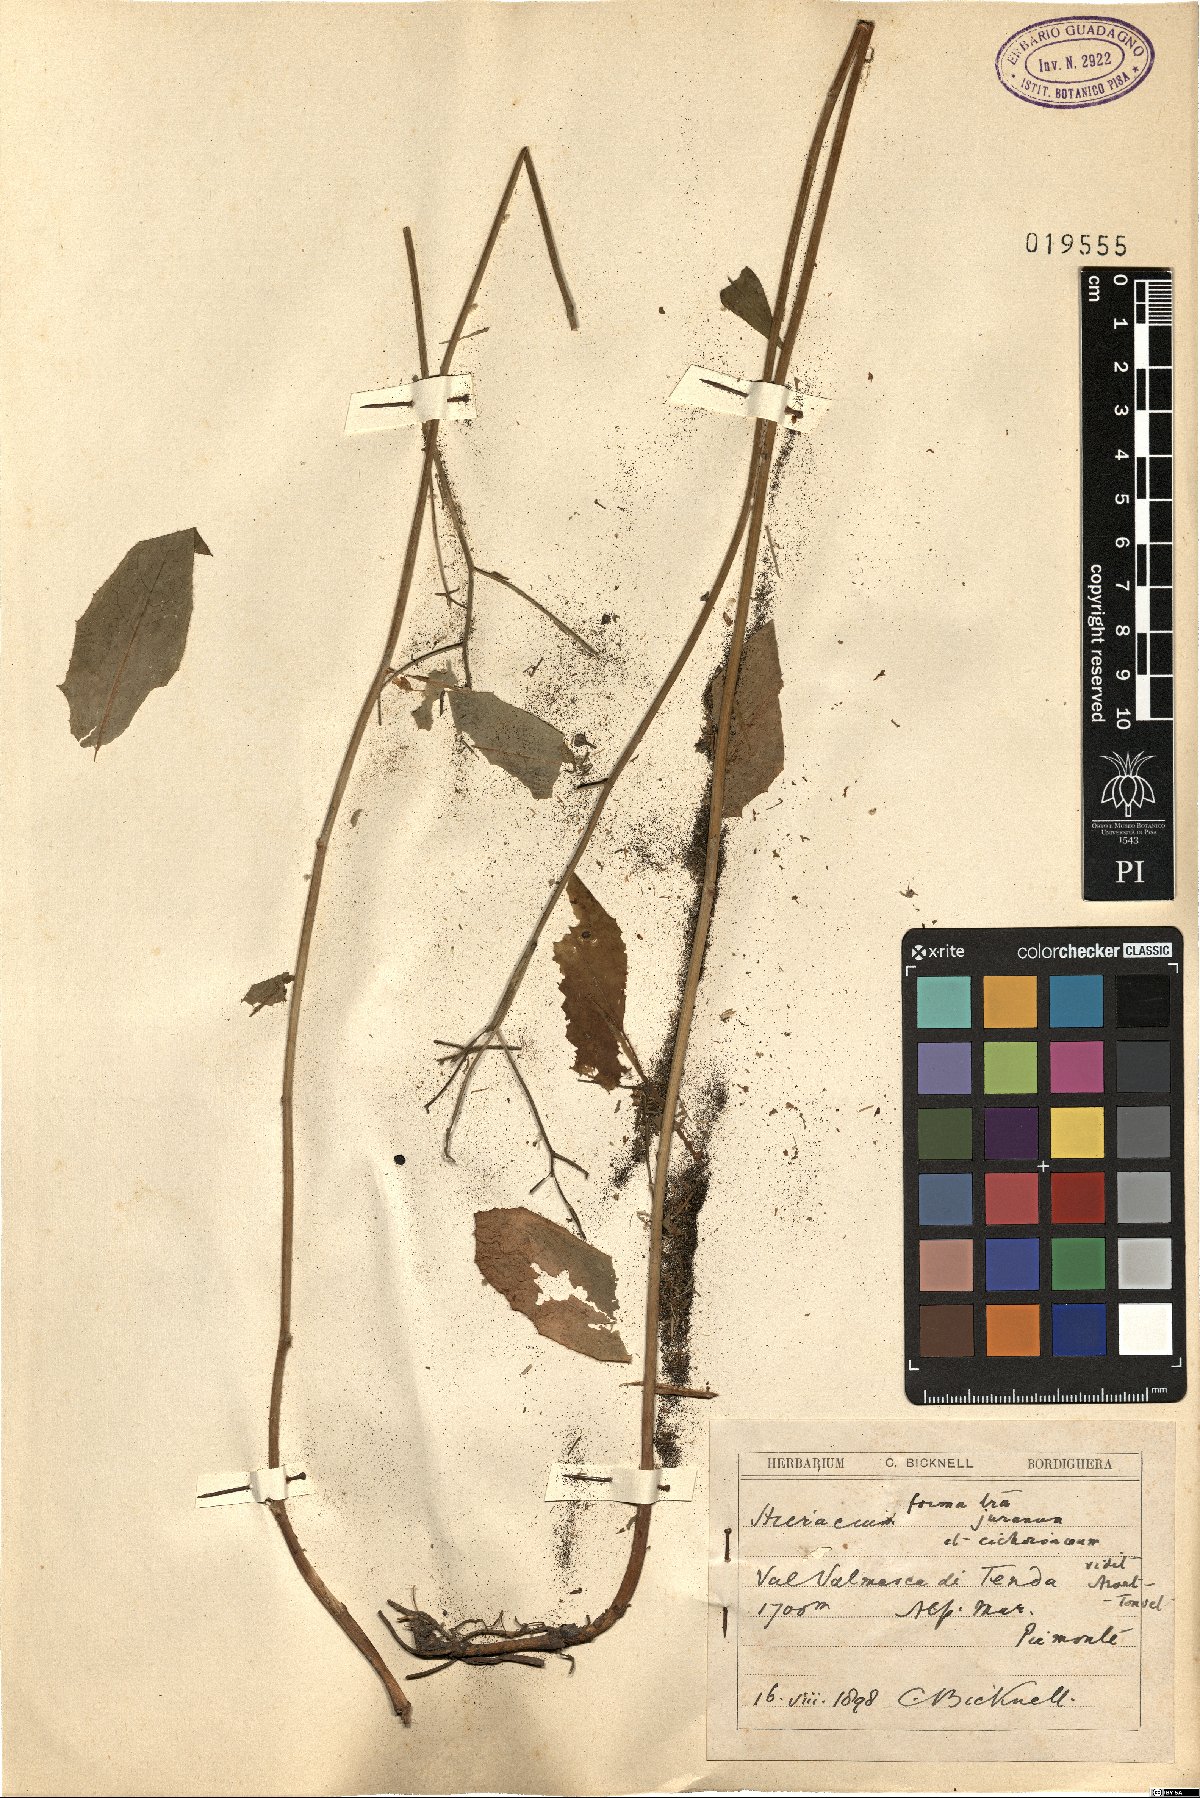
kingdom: Plantae
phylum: Tracheophyta
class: Magnoliopsida
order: Asterales
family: Asteraceae
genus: Hieracium
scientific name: Hieracium
